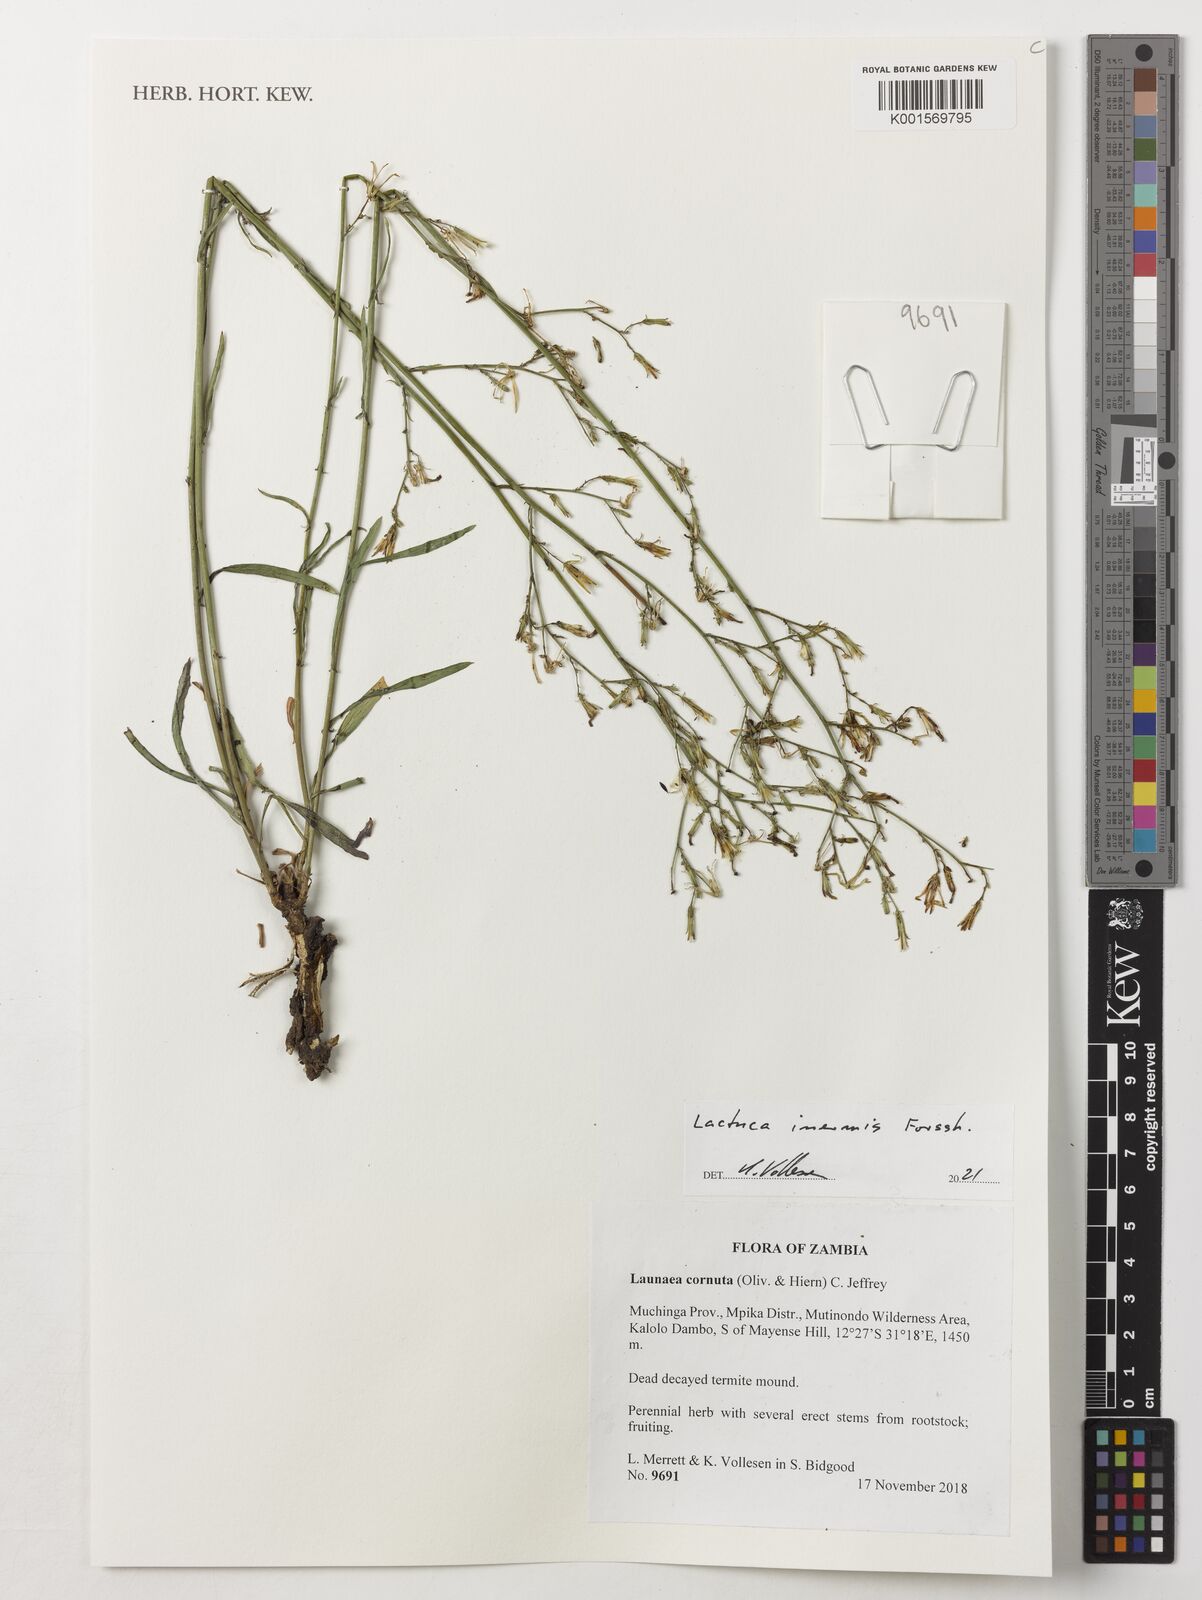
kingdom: Plantae
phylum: Tracheophyta
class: Magnoliopsida
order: Asterales
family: Asteraceae
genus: Lactuca
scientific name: Lactuca inermis
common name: Wild lettuce
